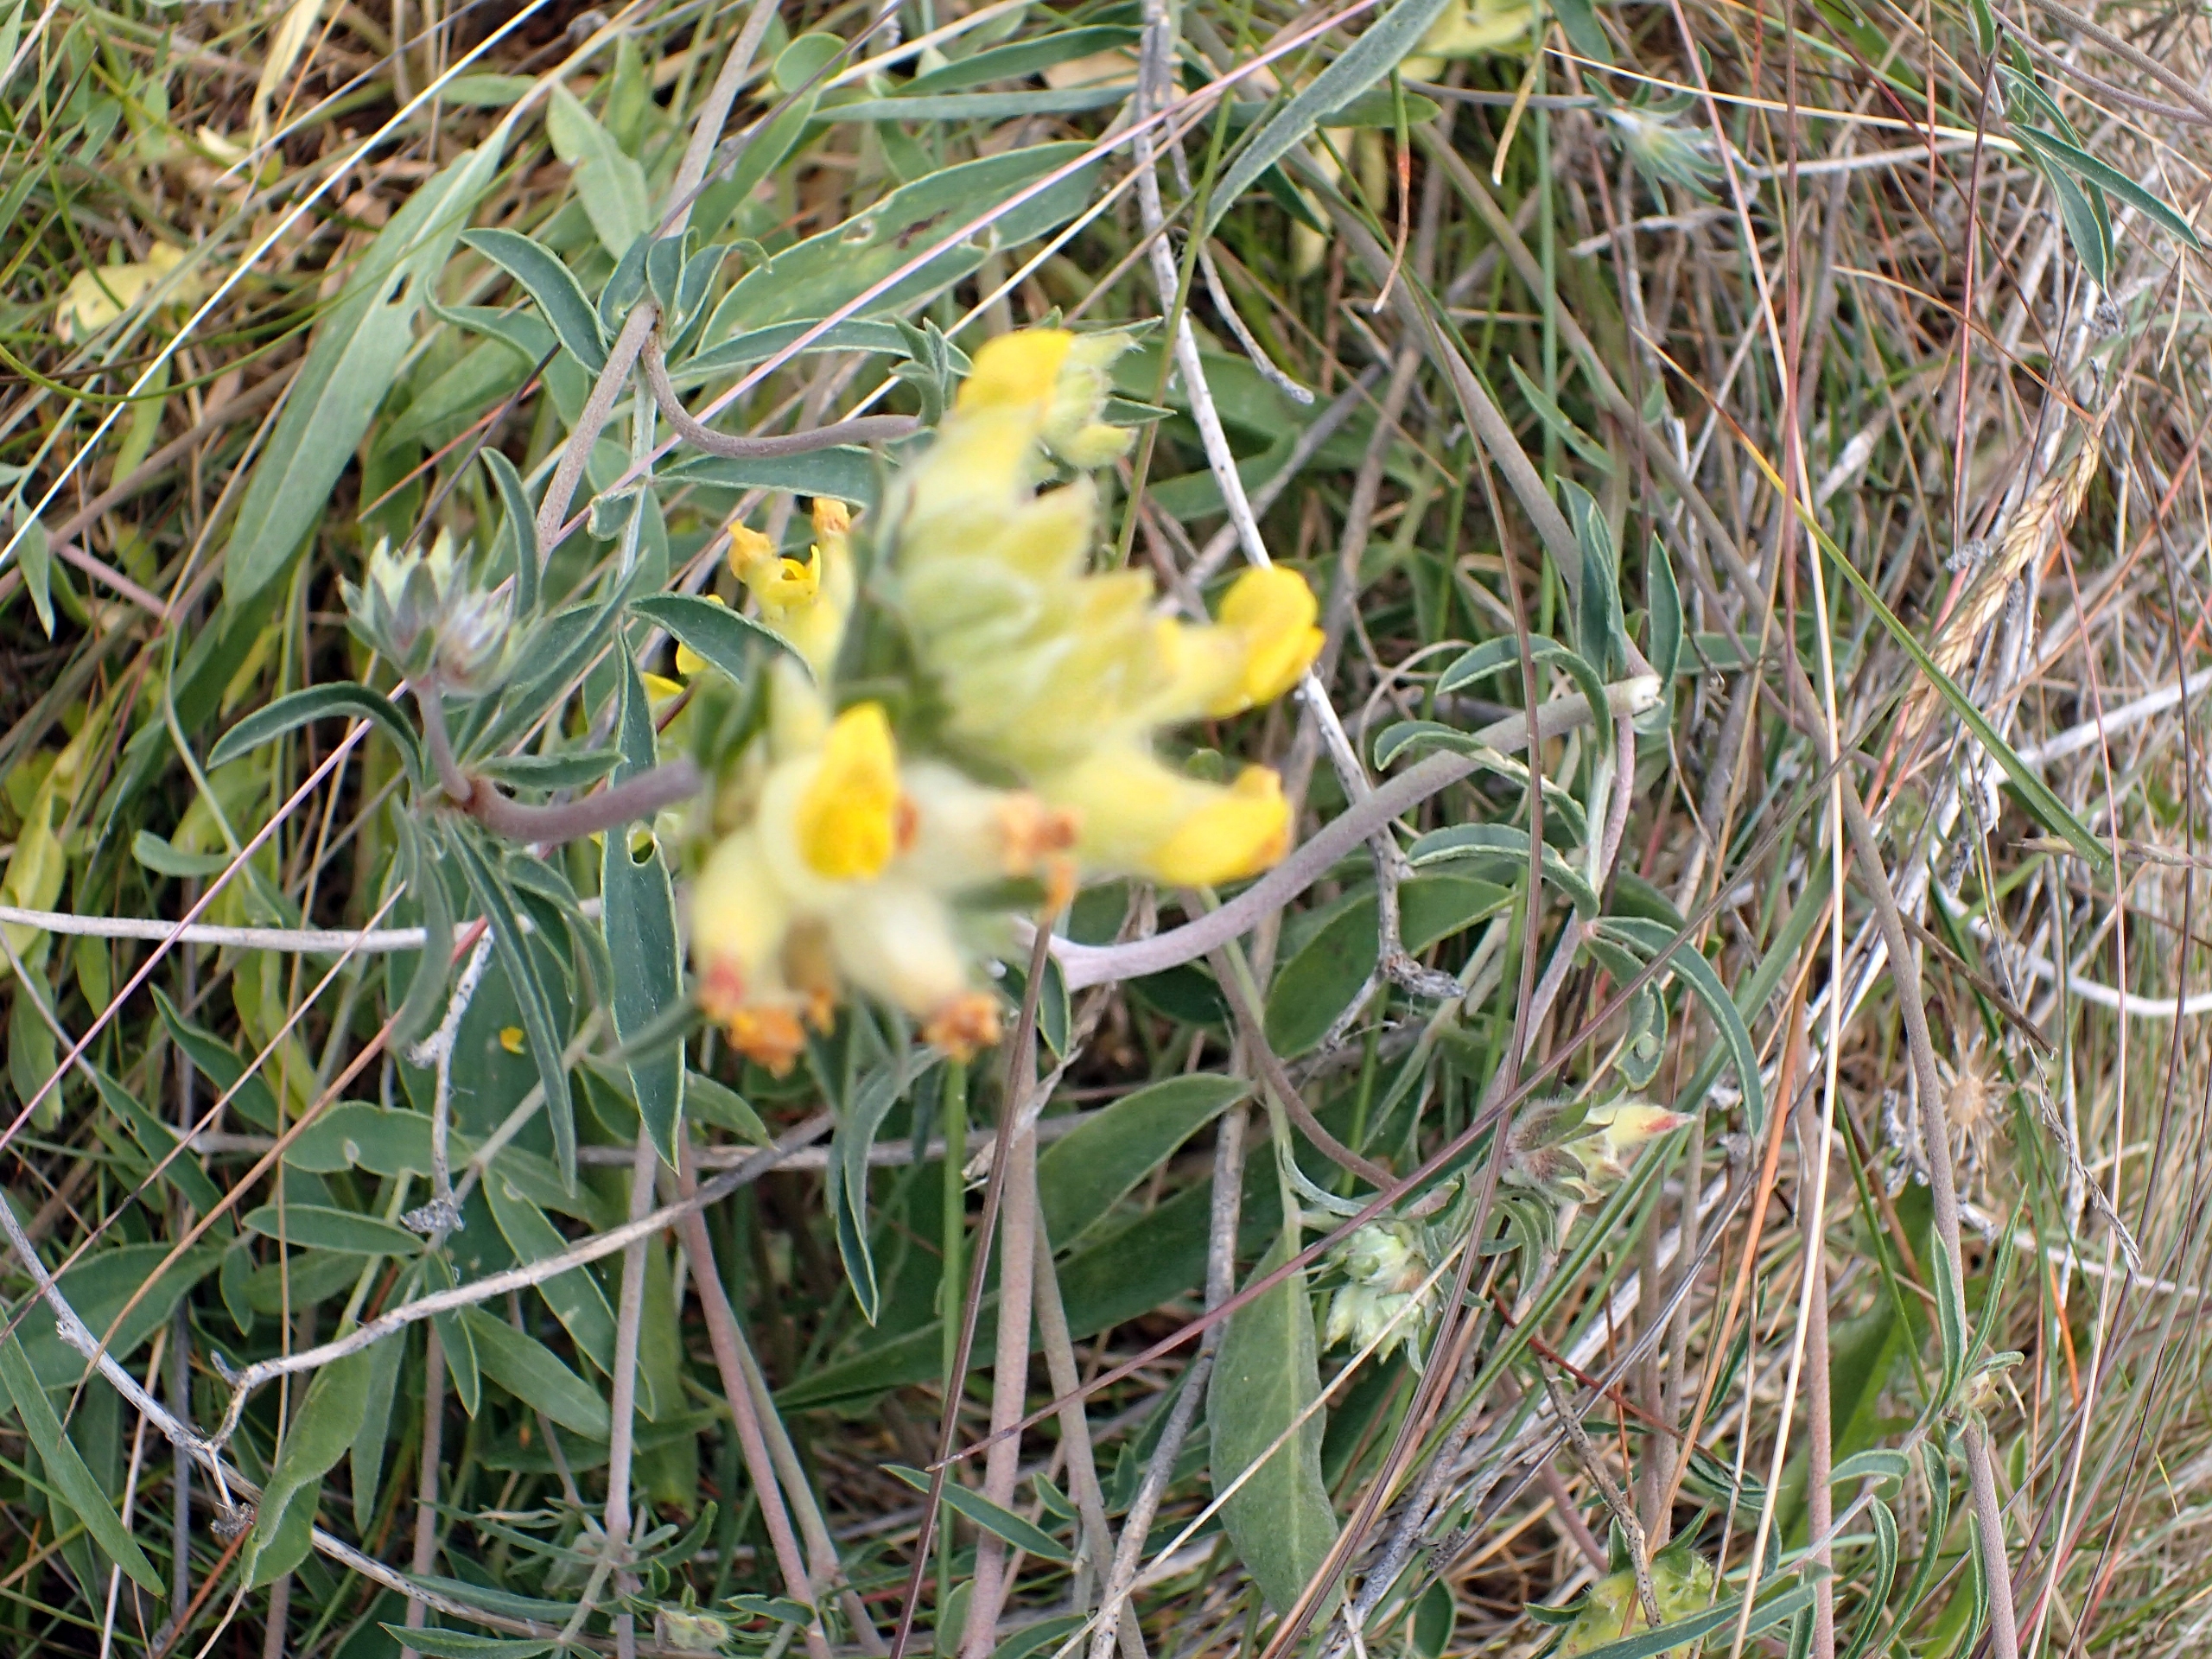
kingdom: Plantae
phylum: Tracheophyta
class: Magnoliopsida
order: Fabales
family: Fabaceae
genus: Anthyllis
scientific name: Anthyllis vulneraria
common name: Rundbælg
